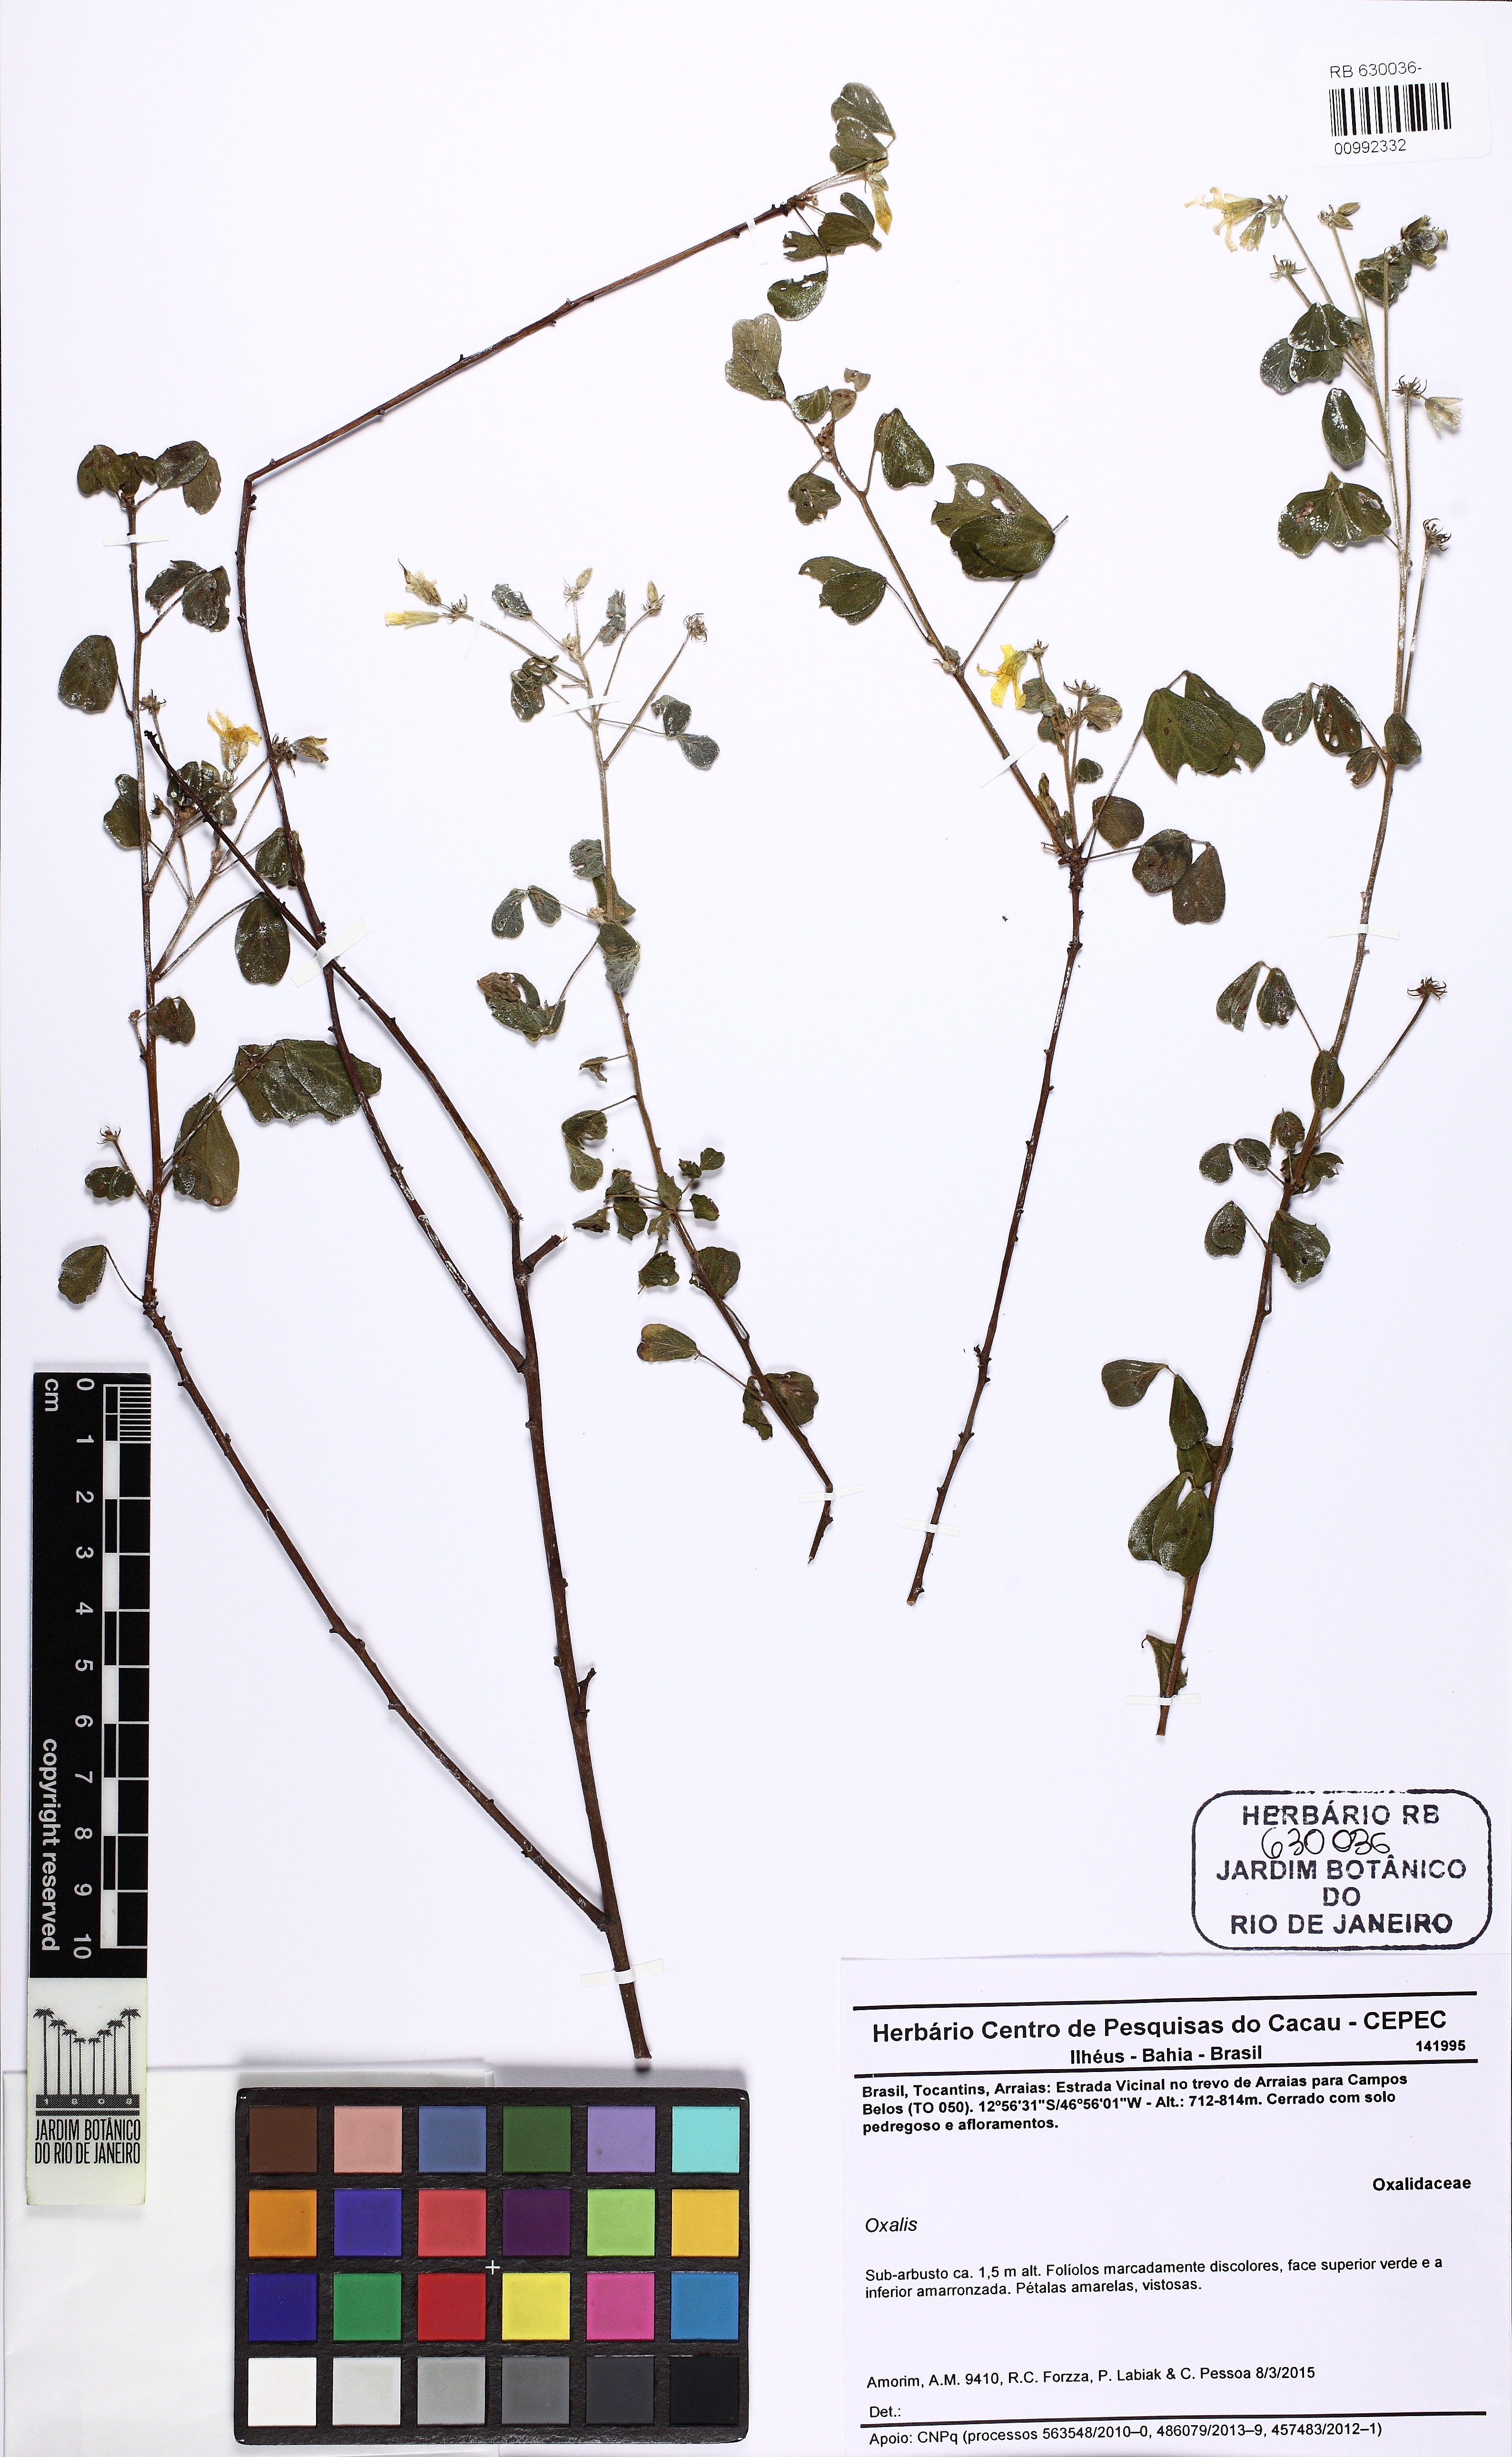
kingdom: Plantae
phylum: Tracheophyta
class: Magnoliopsida
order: Oxalidales
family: Oxalidaceae
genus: Oxalis
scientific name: Oxalis physocalyx
